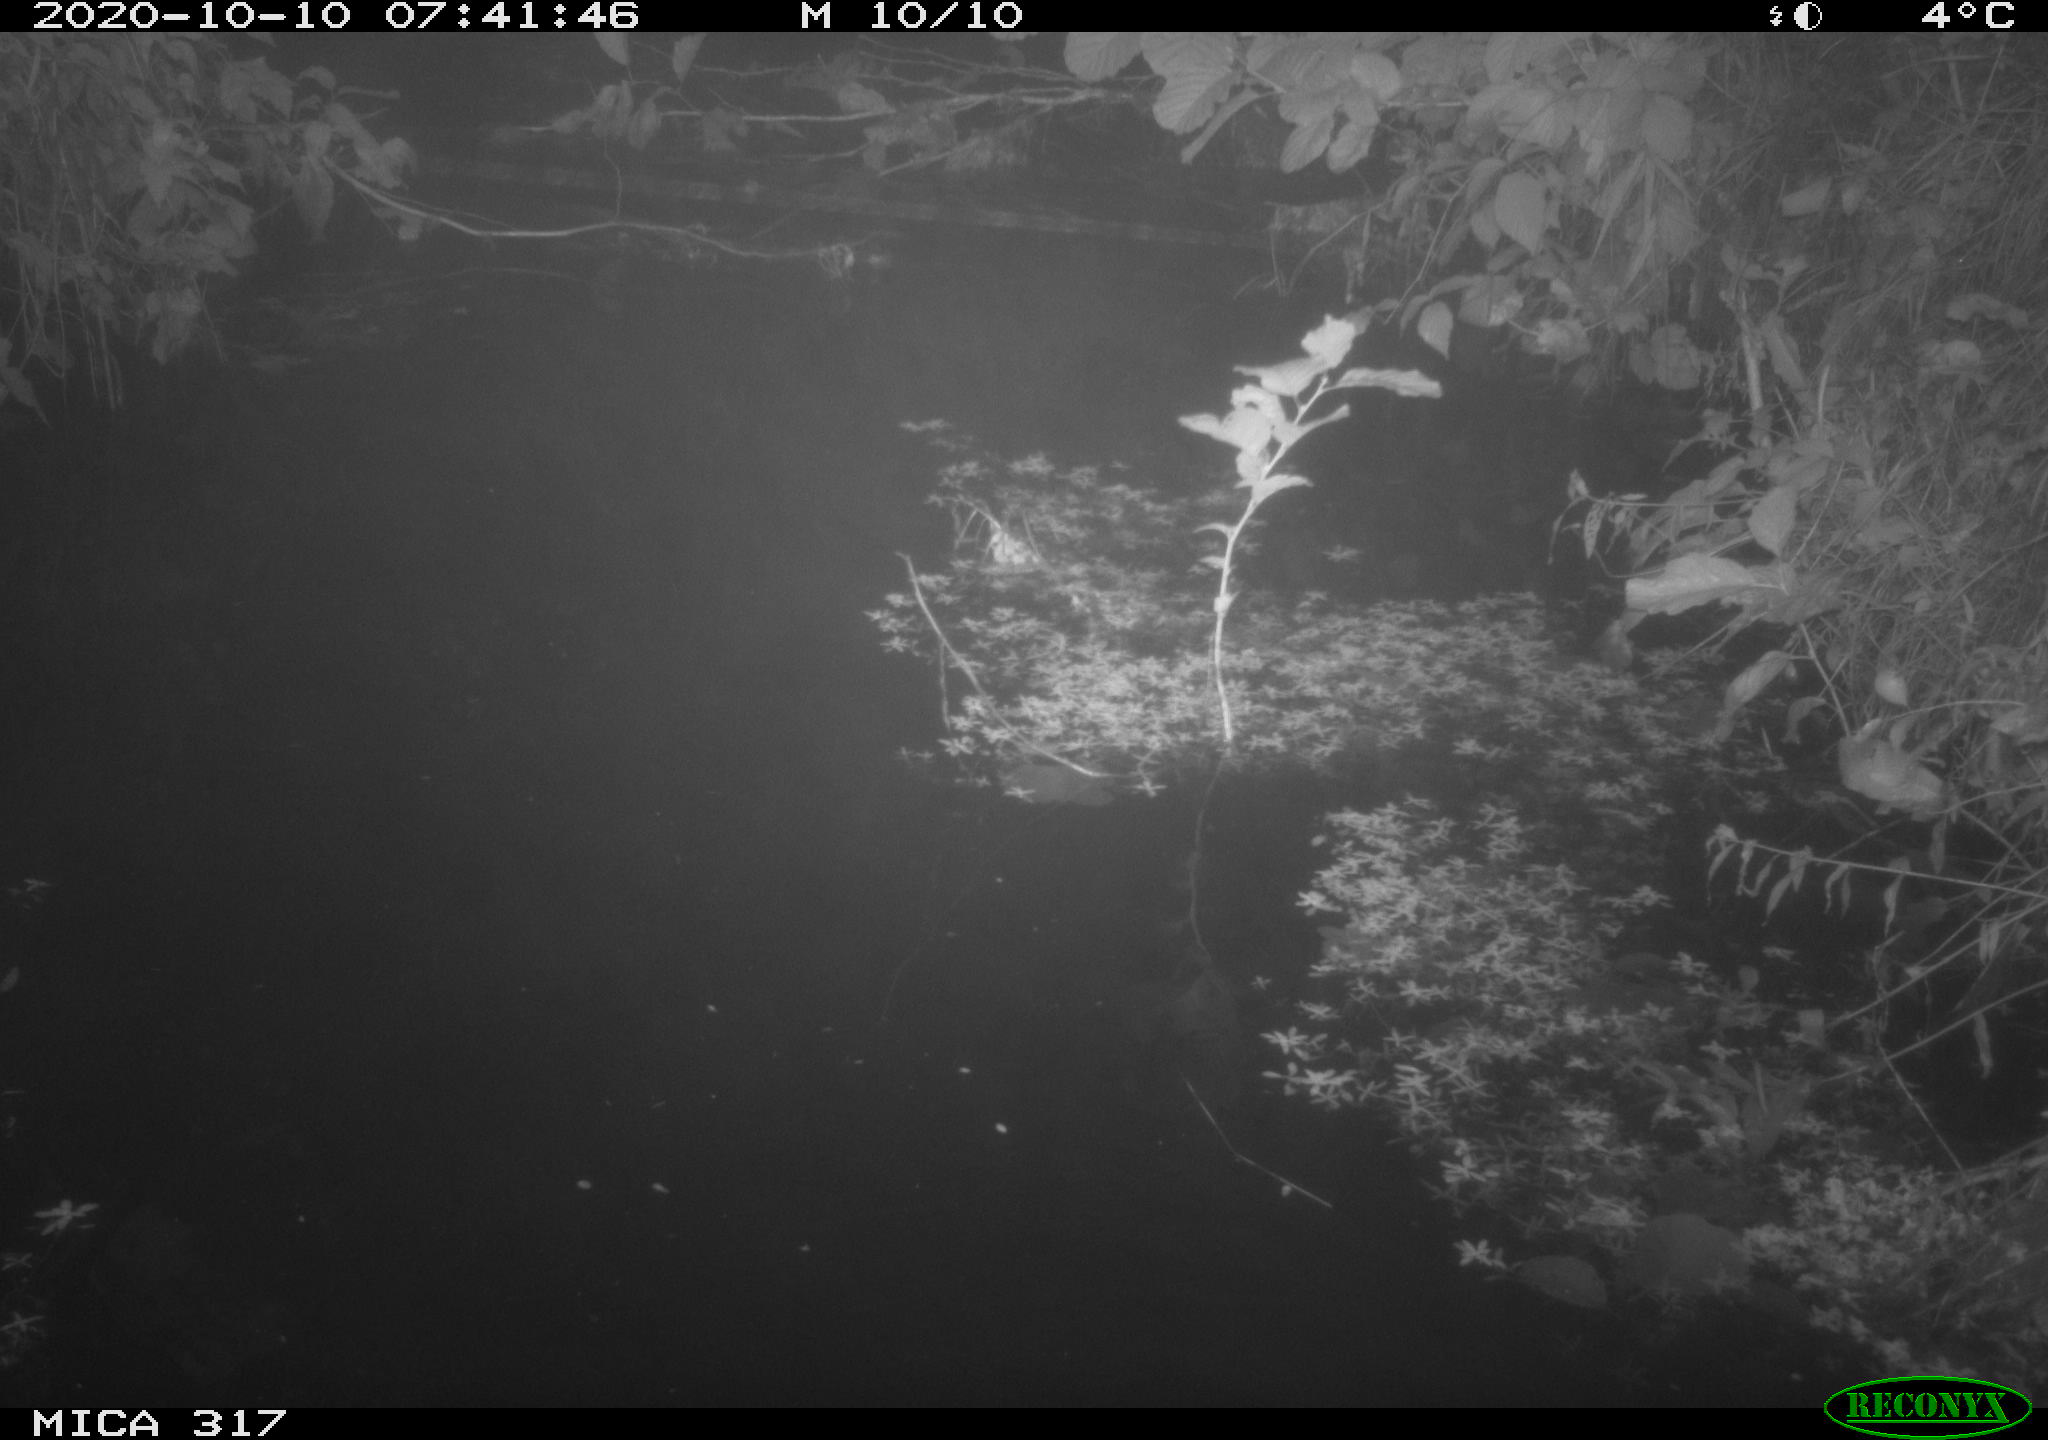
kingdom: Animalia
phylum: Chordata
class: Aves
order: Gruiformes
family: Rallidae
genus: Gallinula
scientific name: Gallinula chloropus
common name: Common moorhen
